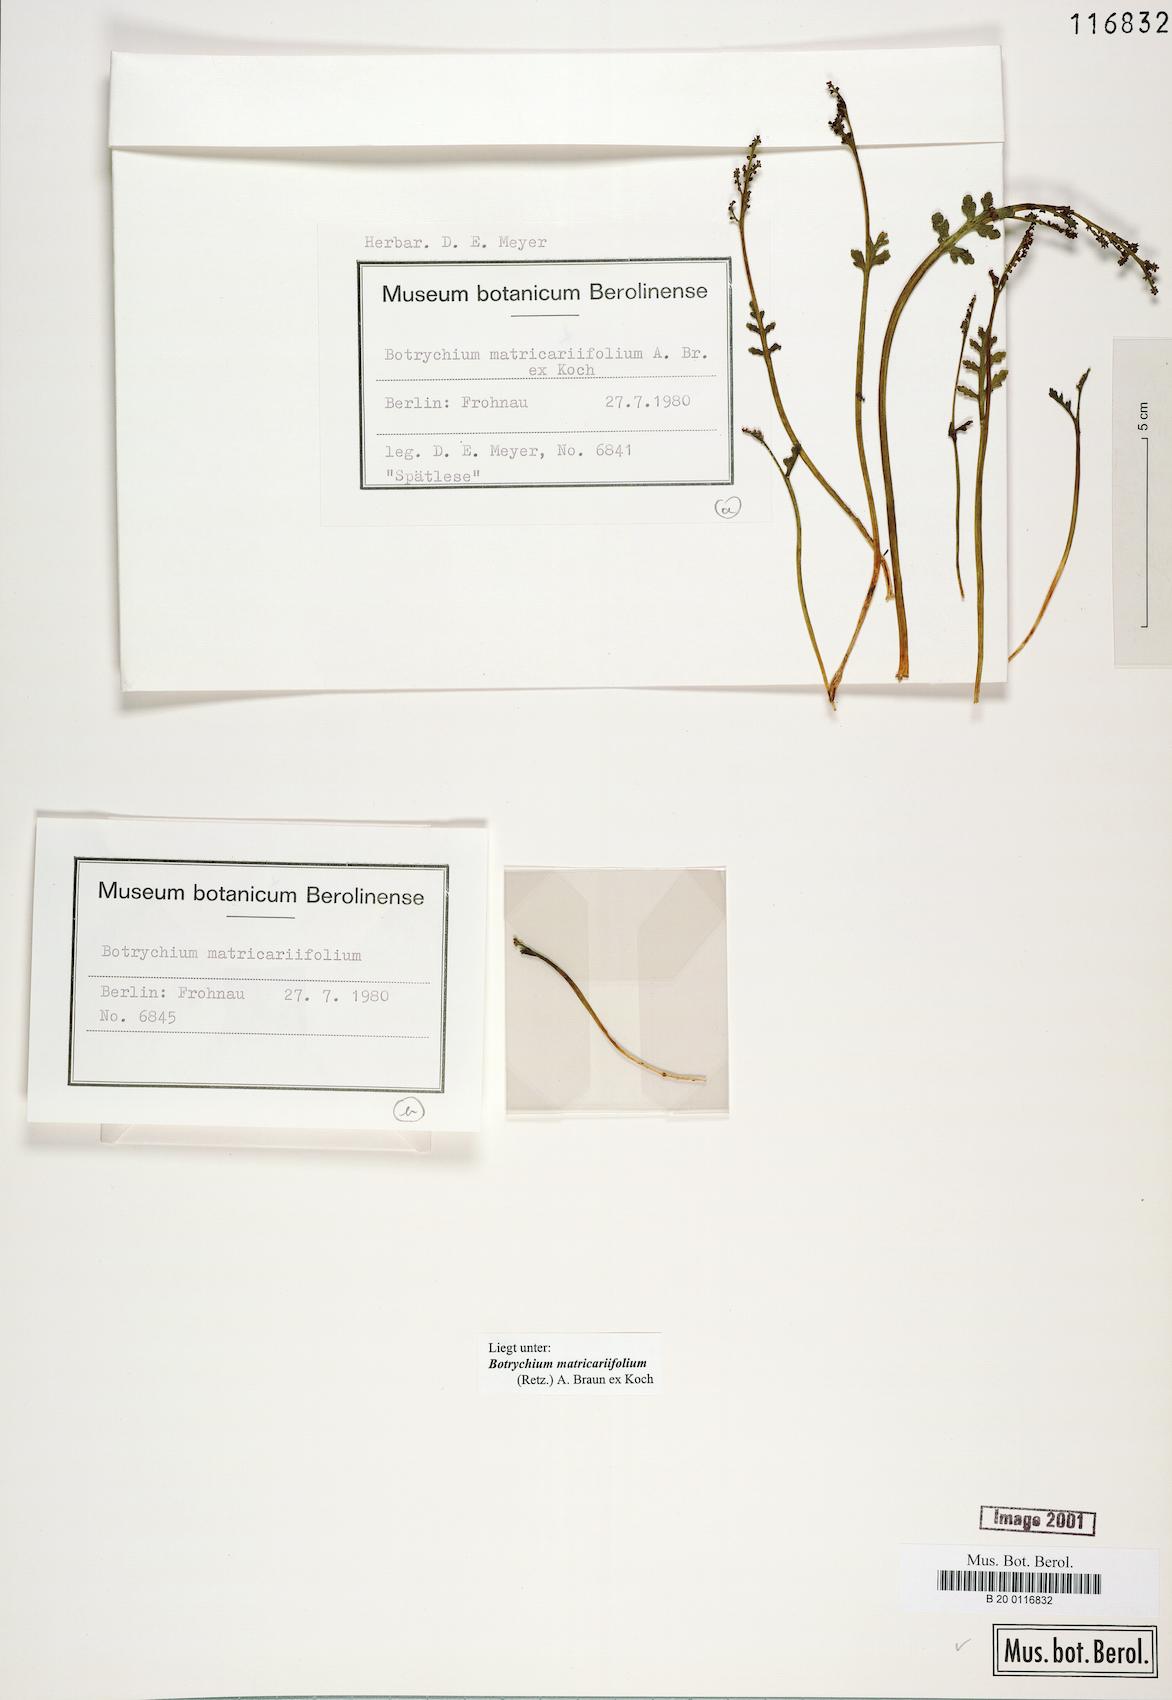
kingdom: Plantae
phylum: Tracheophyta
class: Polypodiopsida
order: Ophioglossales
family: Ophioglossaceae
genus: Botrychium
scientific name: Botrychium matricariifolium
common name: Branched moonwort
